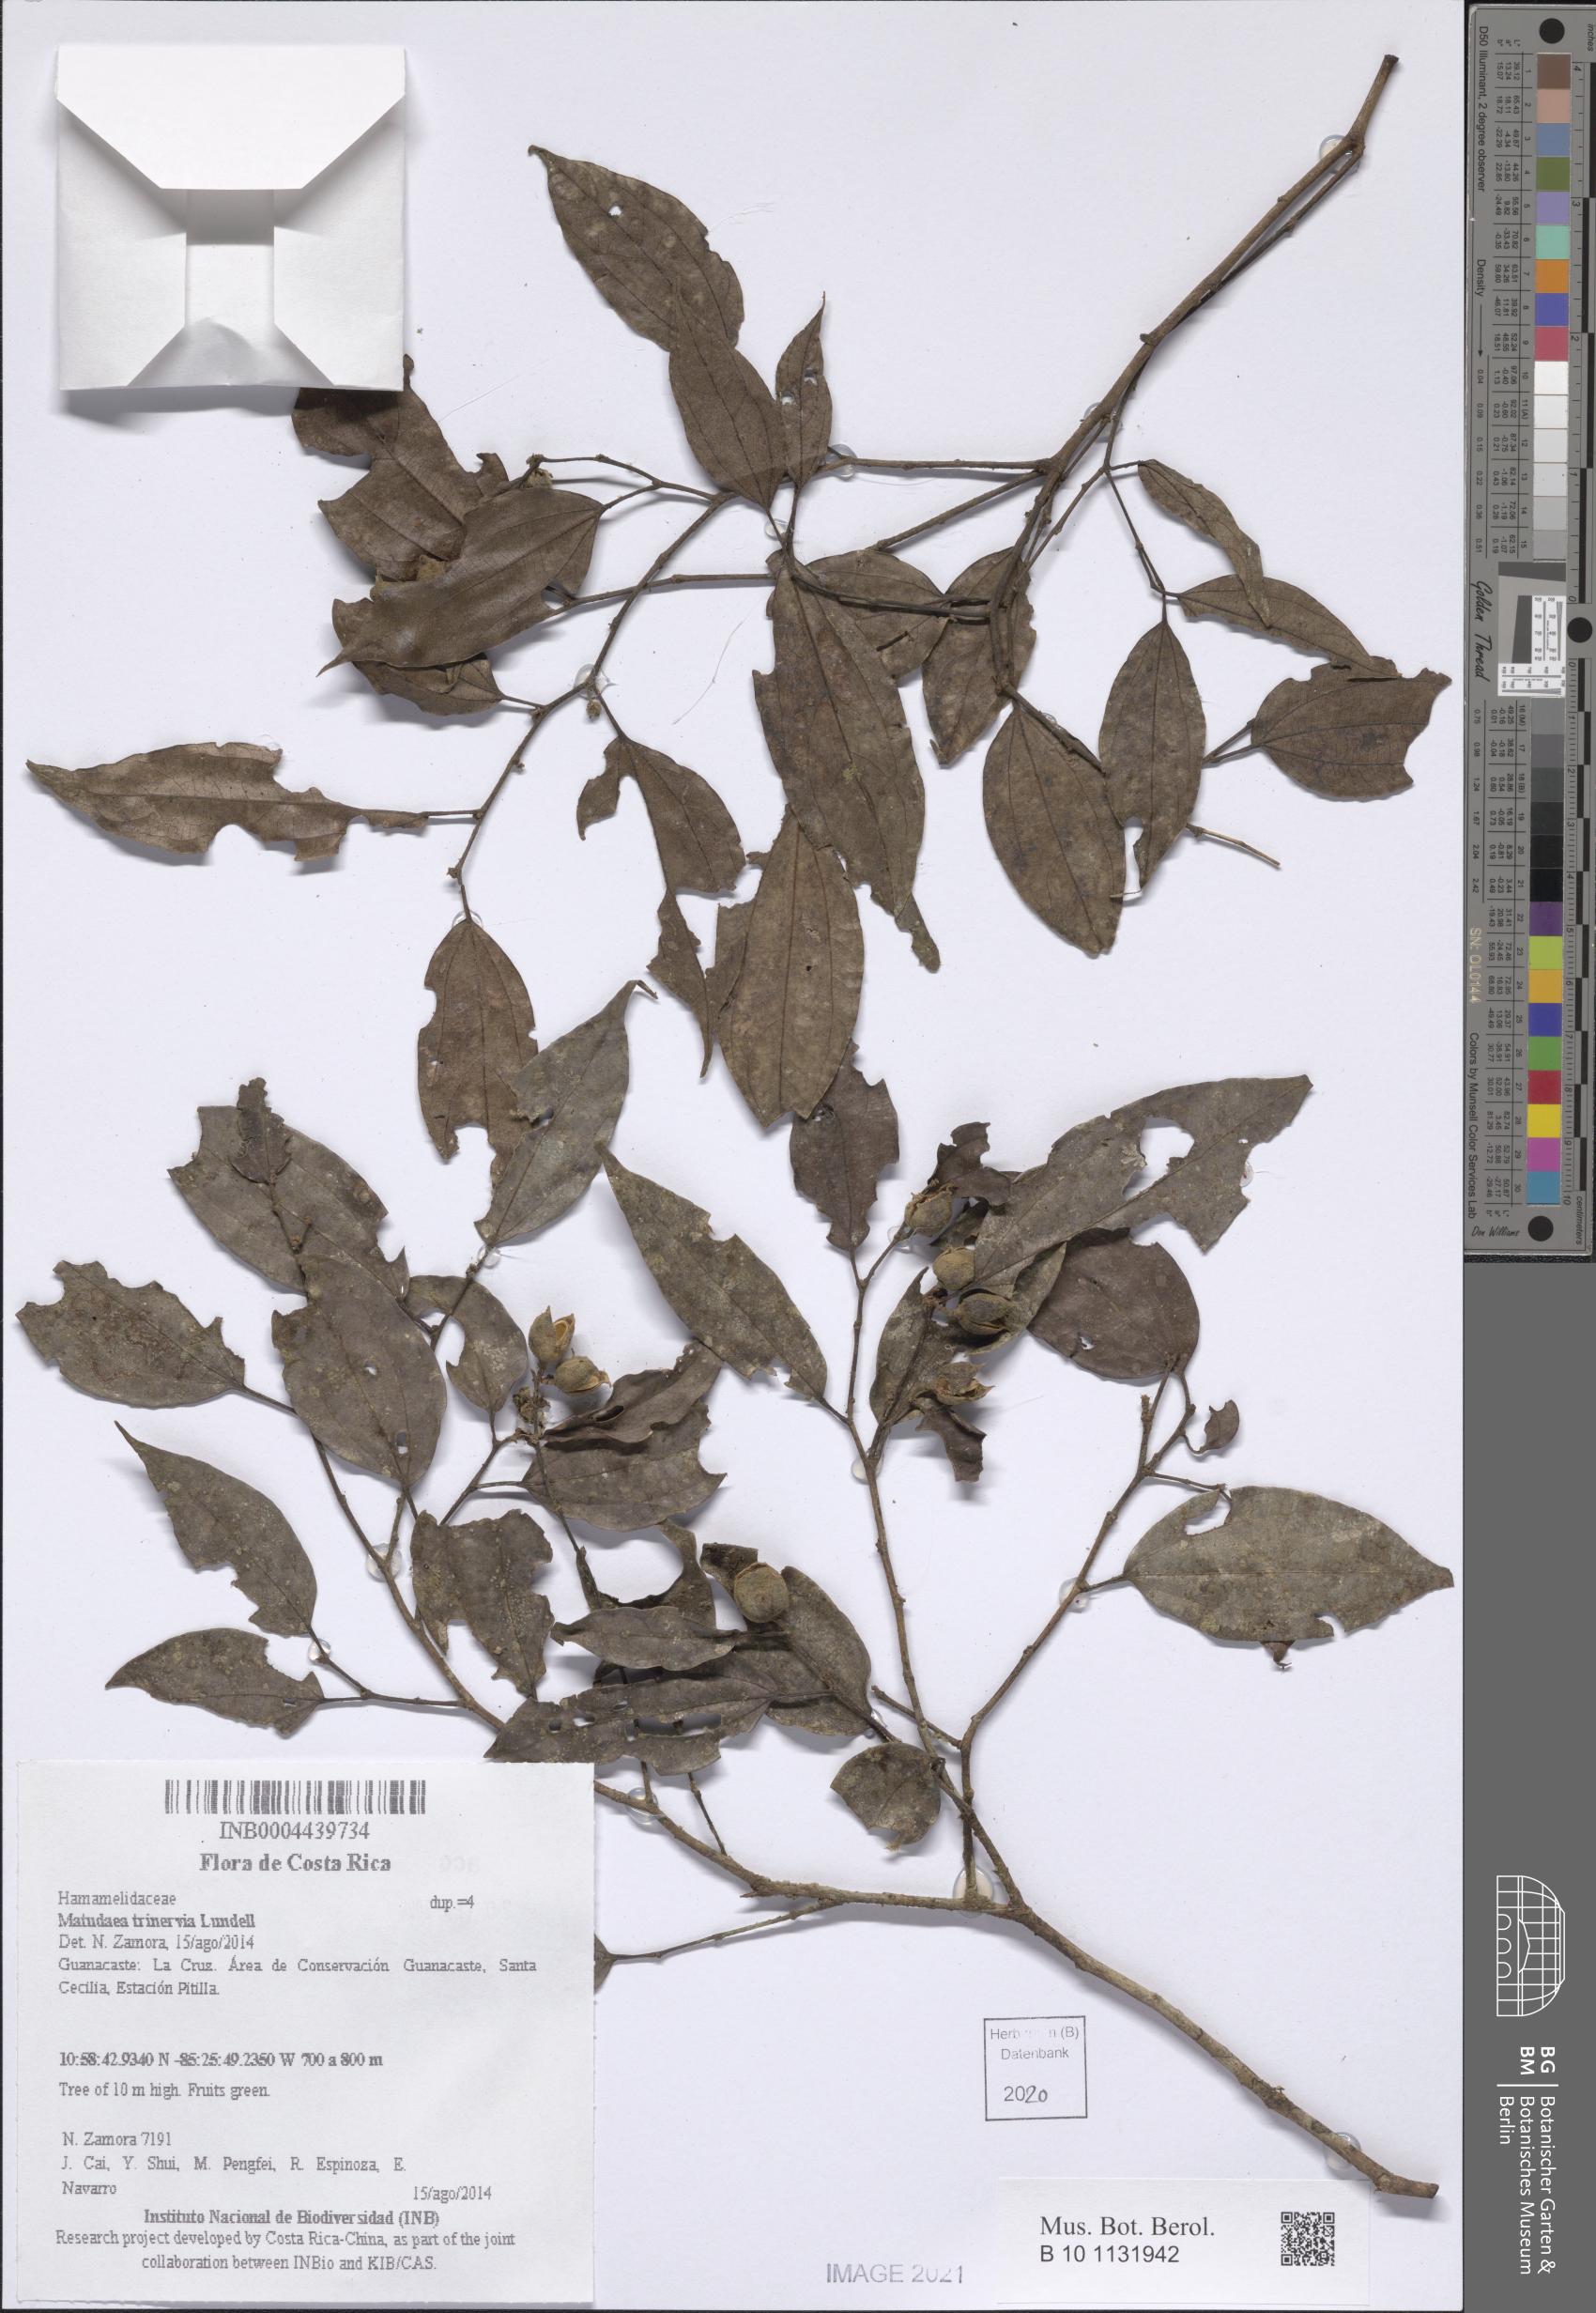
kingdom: Plantae
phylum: Tracheophyta
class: Magnoliopsida
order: Saxifragales
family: Hamamelidaceae
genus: Matudaea
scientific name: Matudaea trinervia
